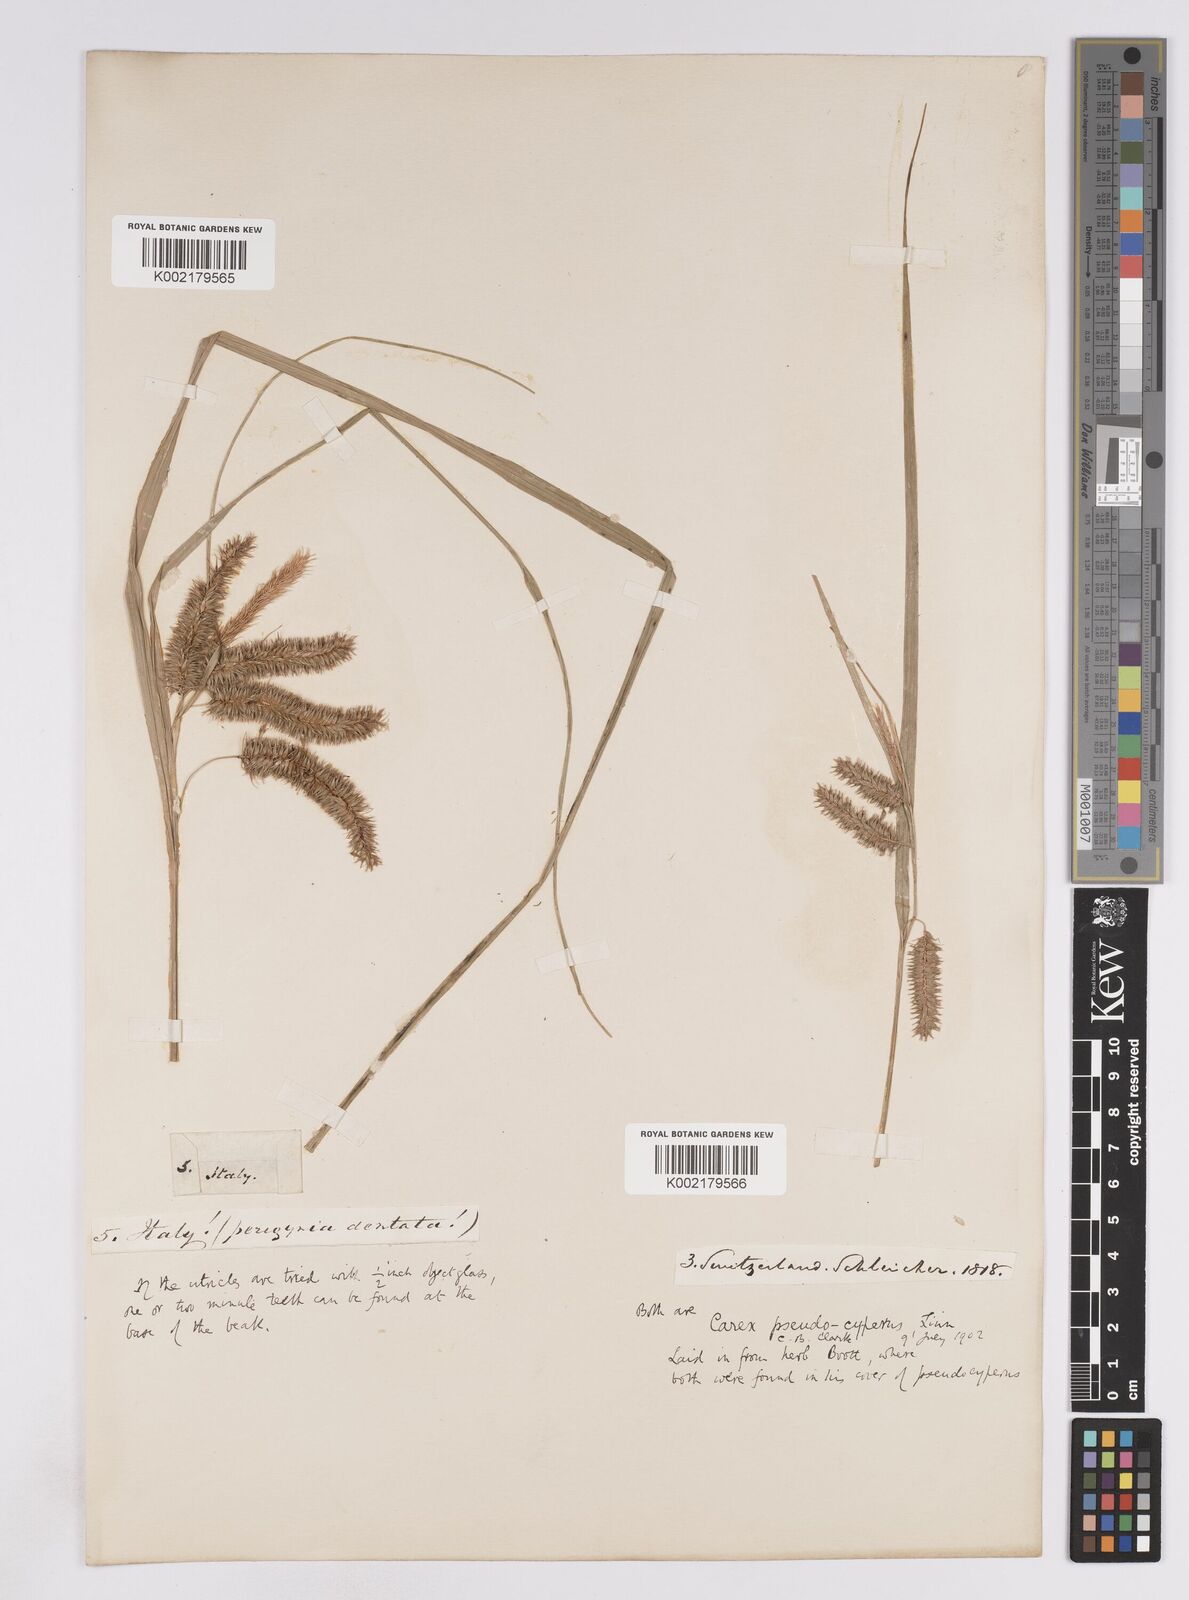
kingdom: Plantae
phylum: Tracheophyta
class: Liliopsida
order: Poales
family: Cyperaceae
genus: Carex
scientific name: Carex pseudocyperus
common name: Cyperus sedge
